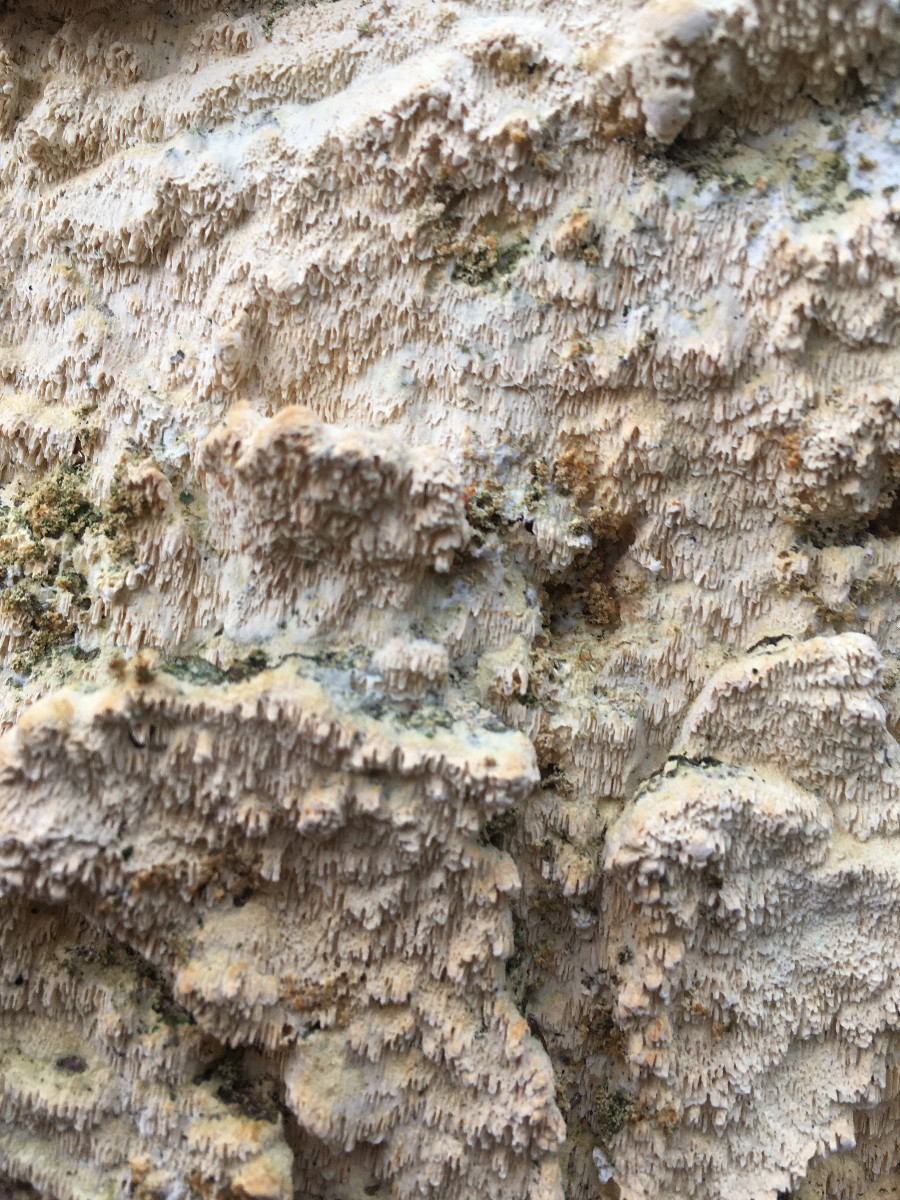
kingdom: Fungi
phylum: Basidiomycota
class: Agaricomycetes
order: Hymenochaetales
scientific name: Hymenochaetales
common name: børstesvampordenen
